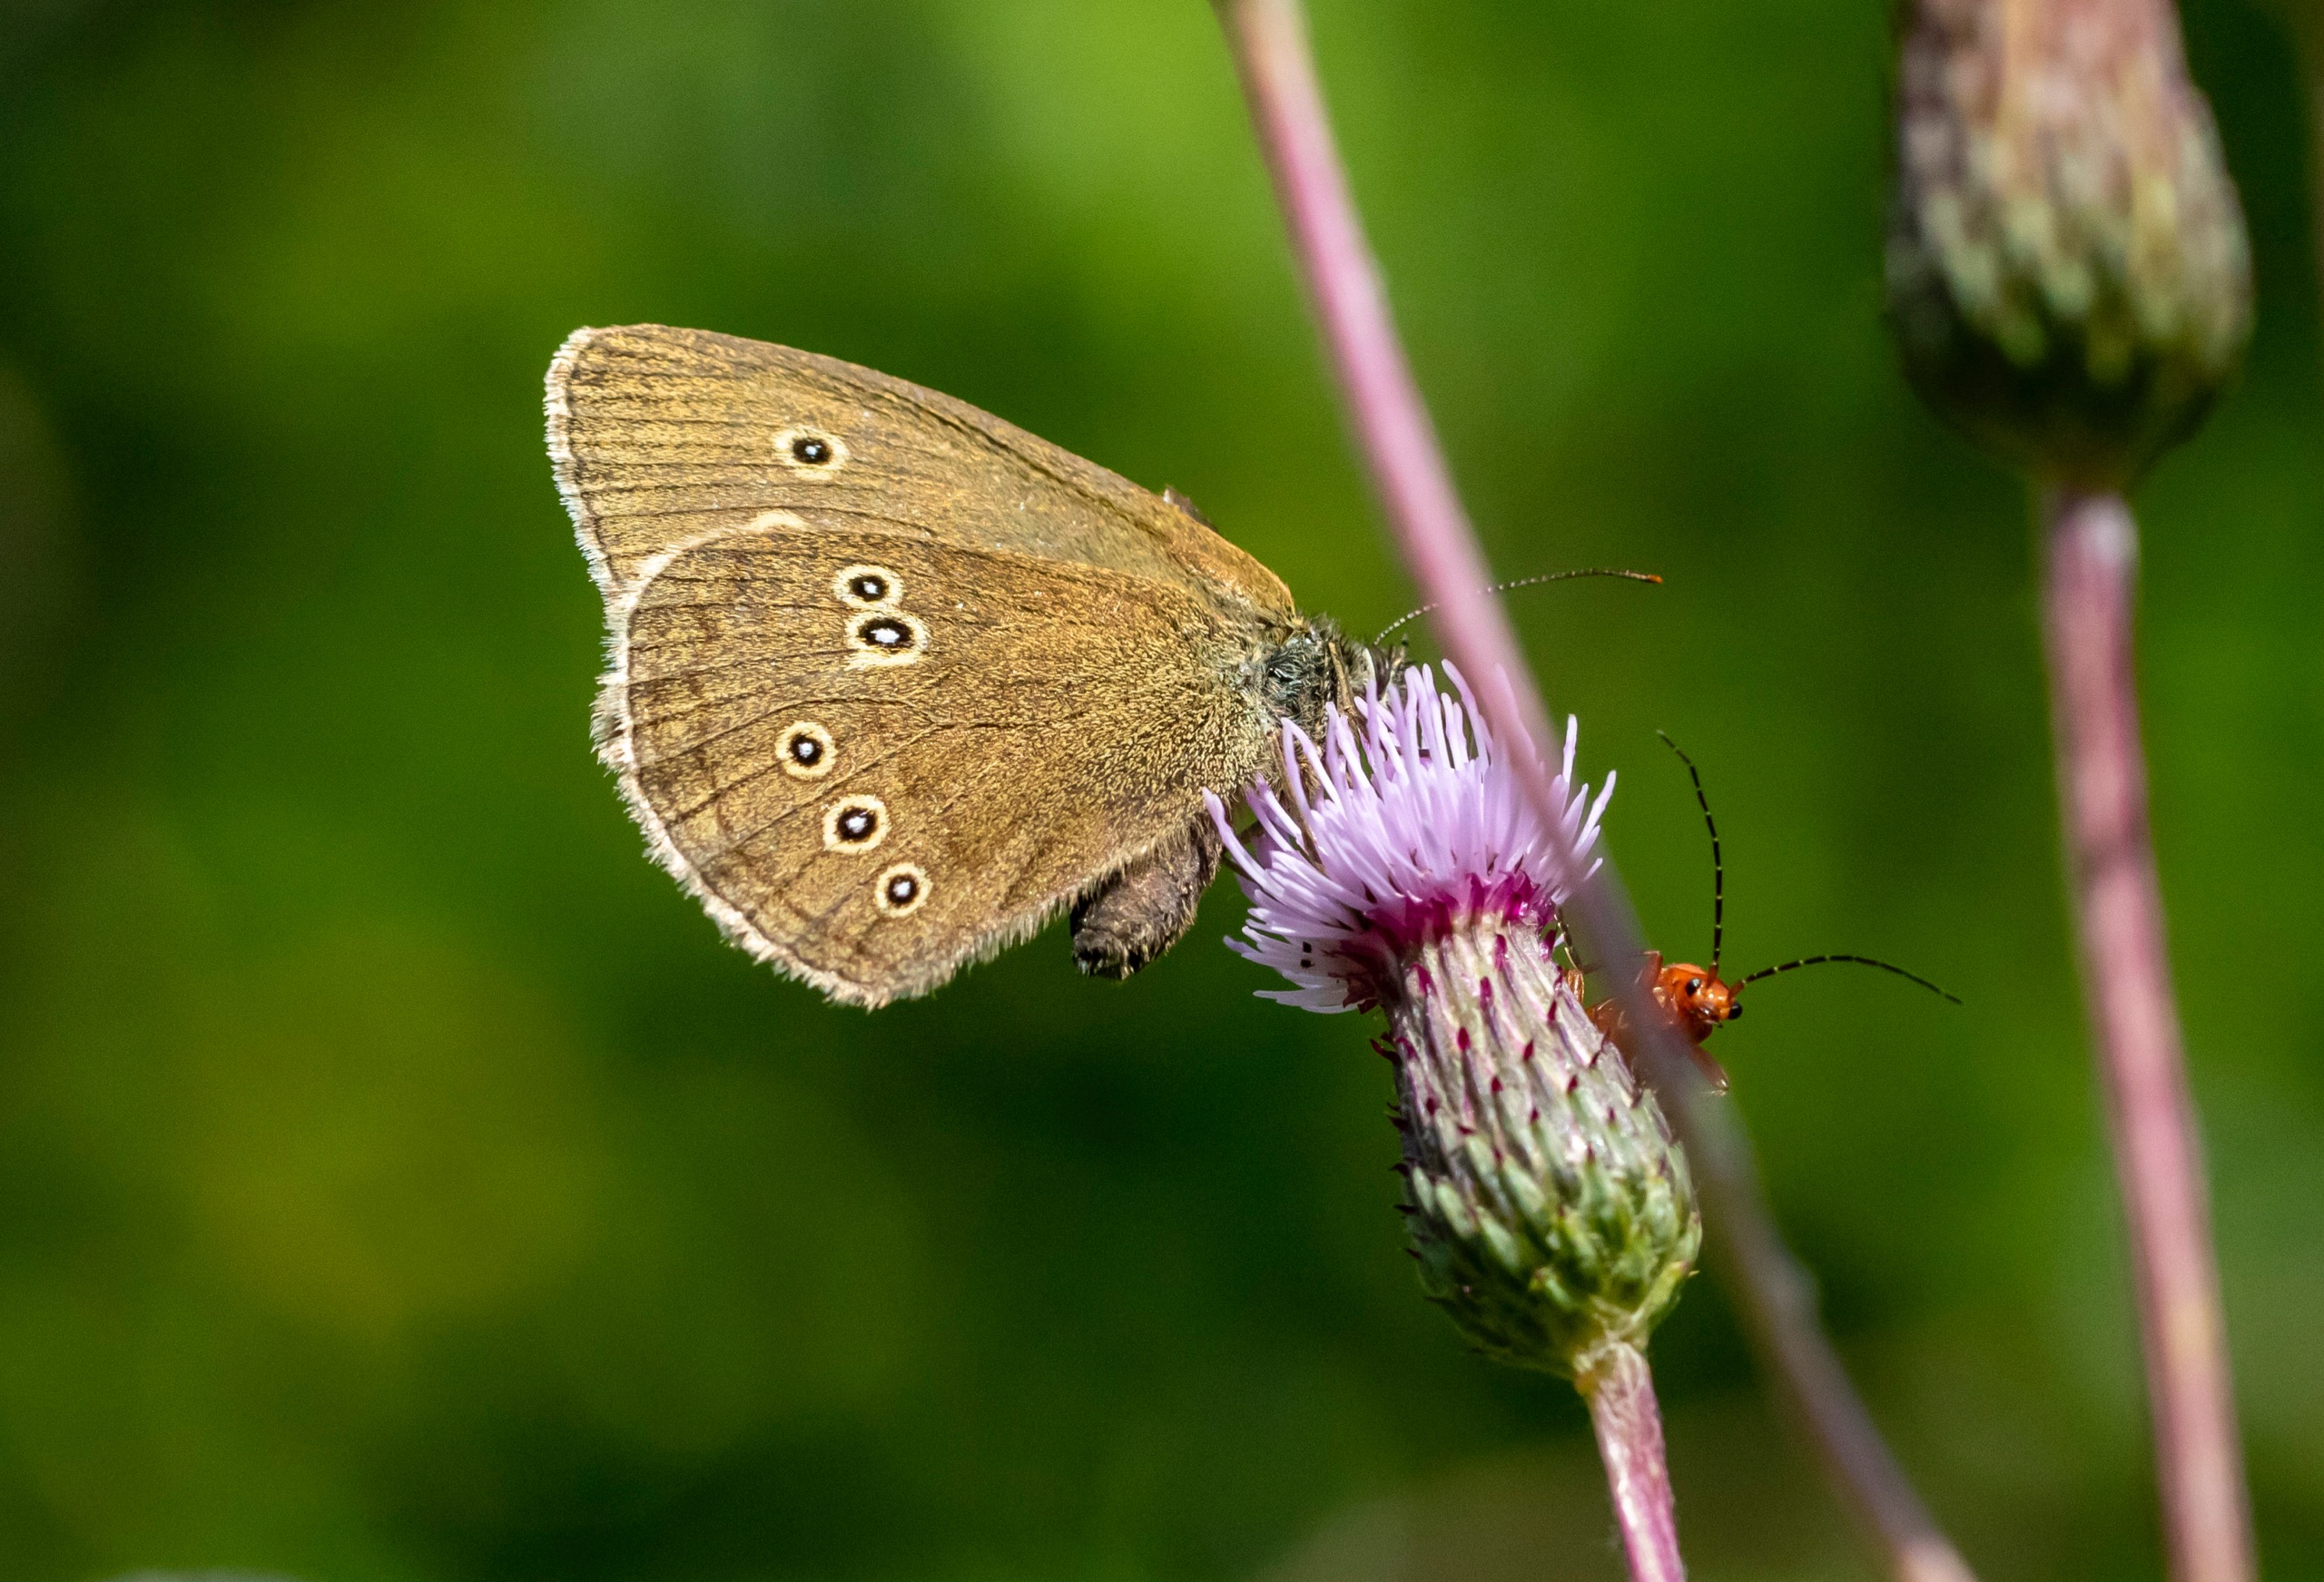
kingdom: Animalia
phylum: Arthropoda
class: Insecta
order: Lepidoptera
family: Nymphalidae
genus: Aphantopus
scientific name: Aphantopus hyperantus
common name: Engrandøje
